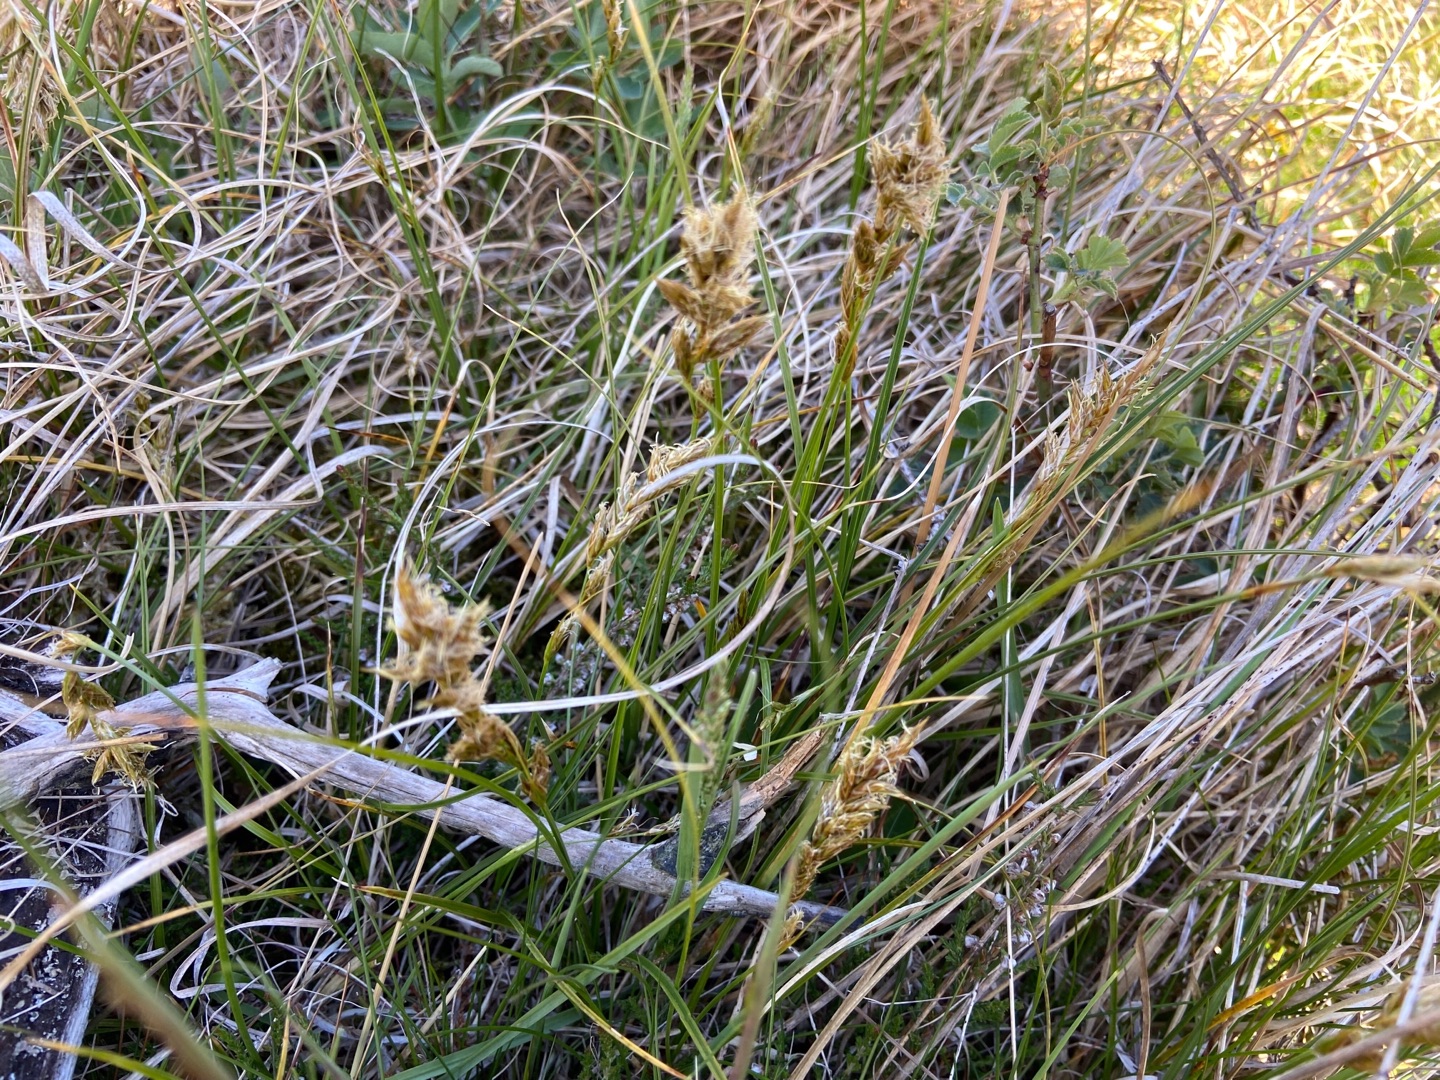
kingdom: Plantae
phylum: Tracheophyta
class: Liliopsida
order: Poales
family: Cyperaceae
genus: Carex
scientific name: Carex arenaria
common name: Sand-star
